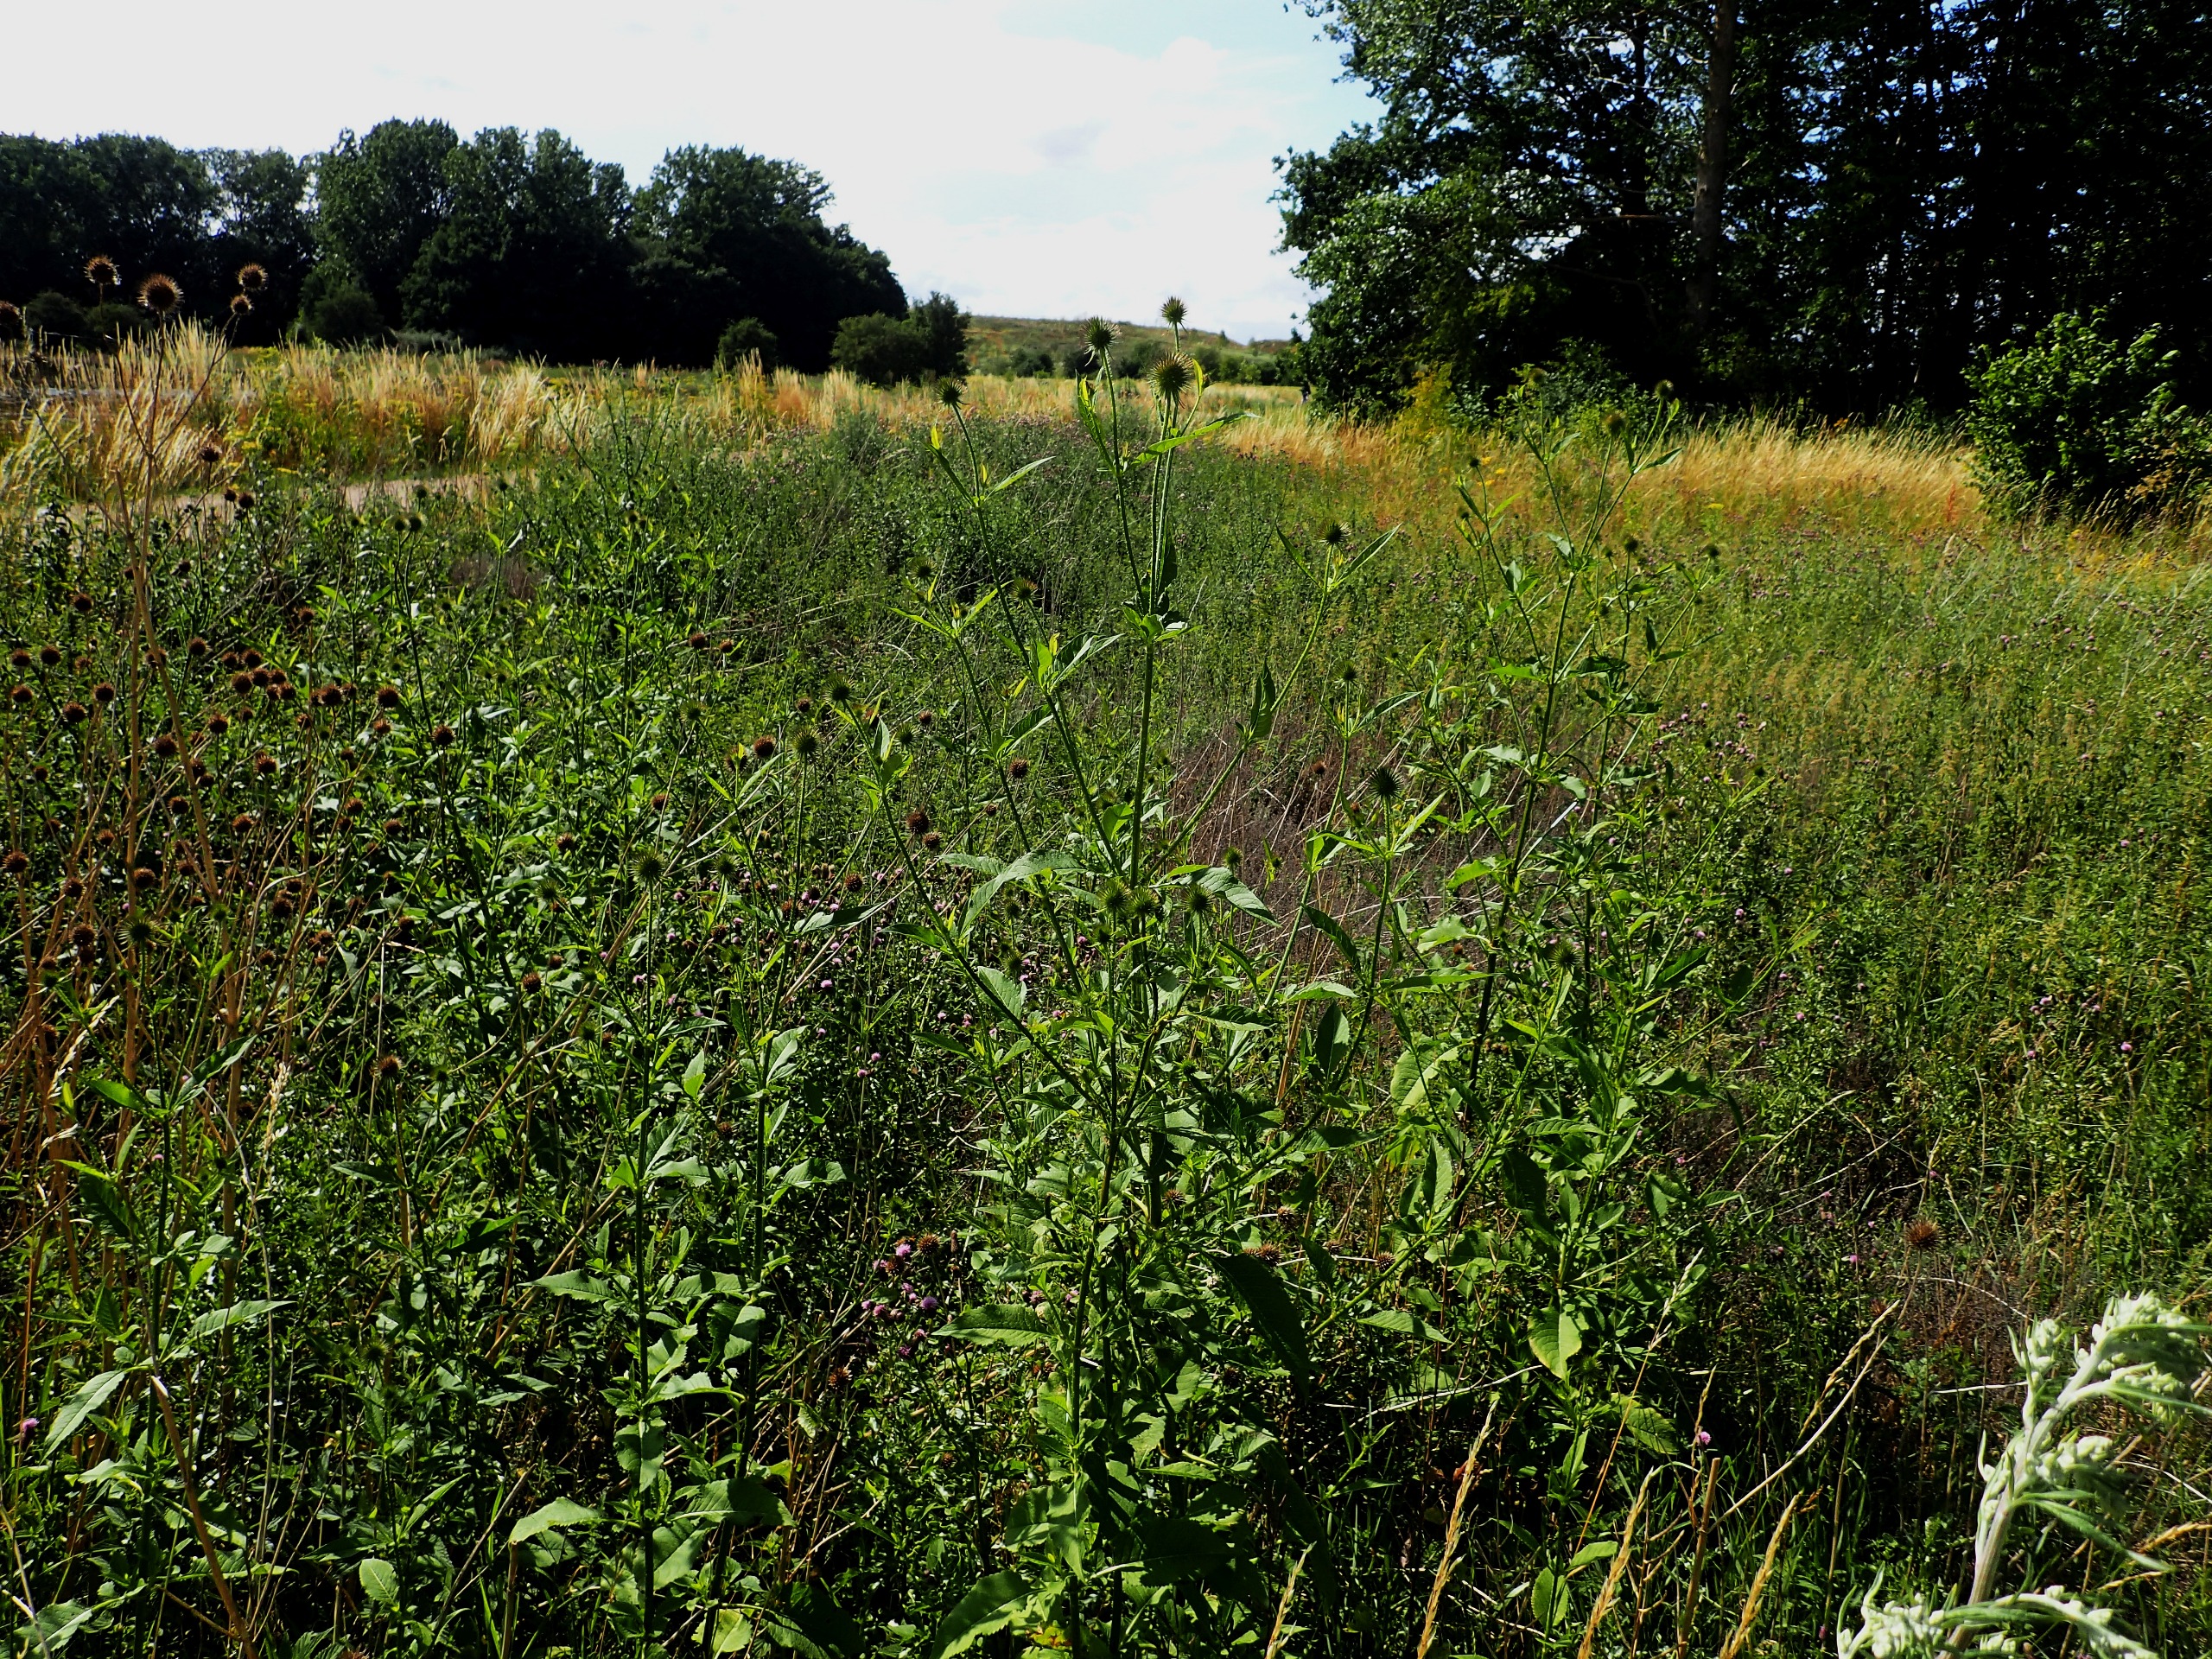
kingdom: Plantae
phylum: Tracheophyta
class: Magnoliopsida
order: Dipsacales
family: Caprifoliaceae
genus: Dipsacus
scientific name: Dipsacus strigosus
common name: Pindsvin-kartebolle
